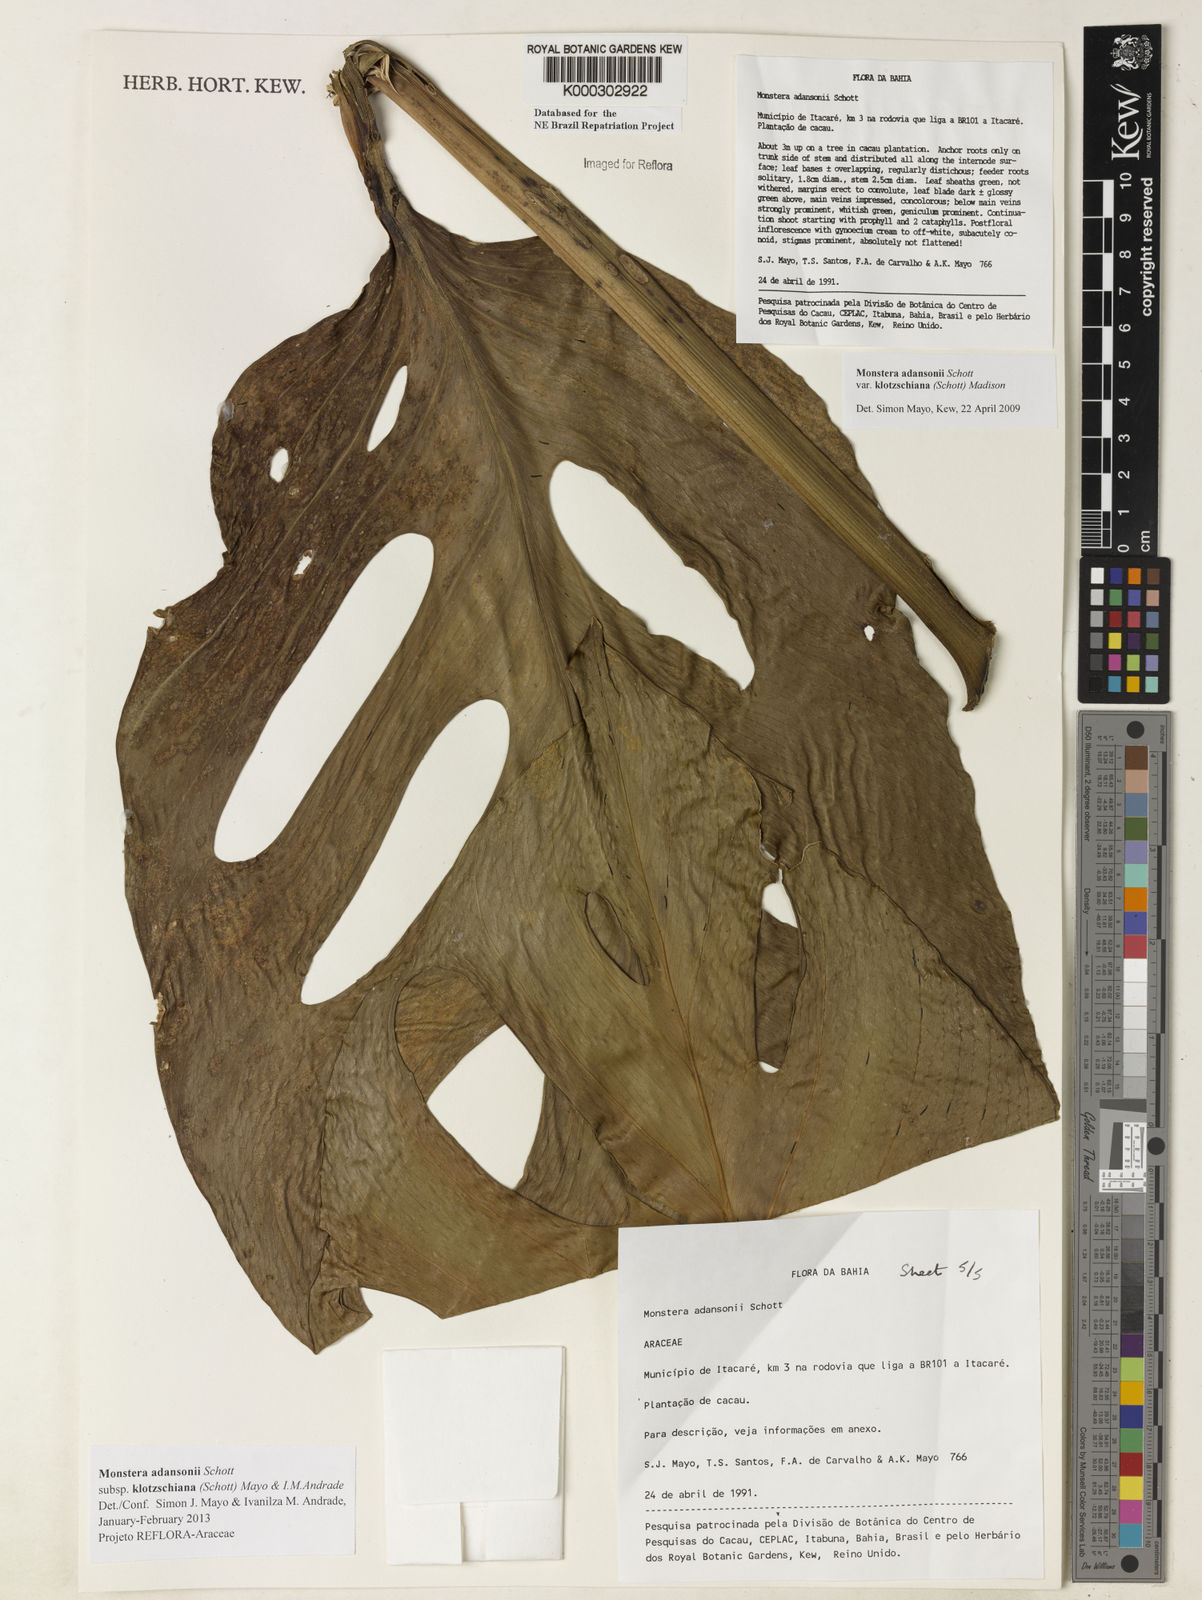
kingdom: Plantae
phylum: Tracheophyta
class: Liliopsida
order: Alismatales
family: Araceae
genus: Monstera
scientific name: Monstera adansonii
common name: Tarovine
